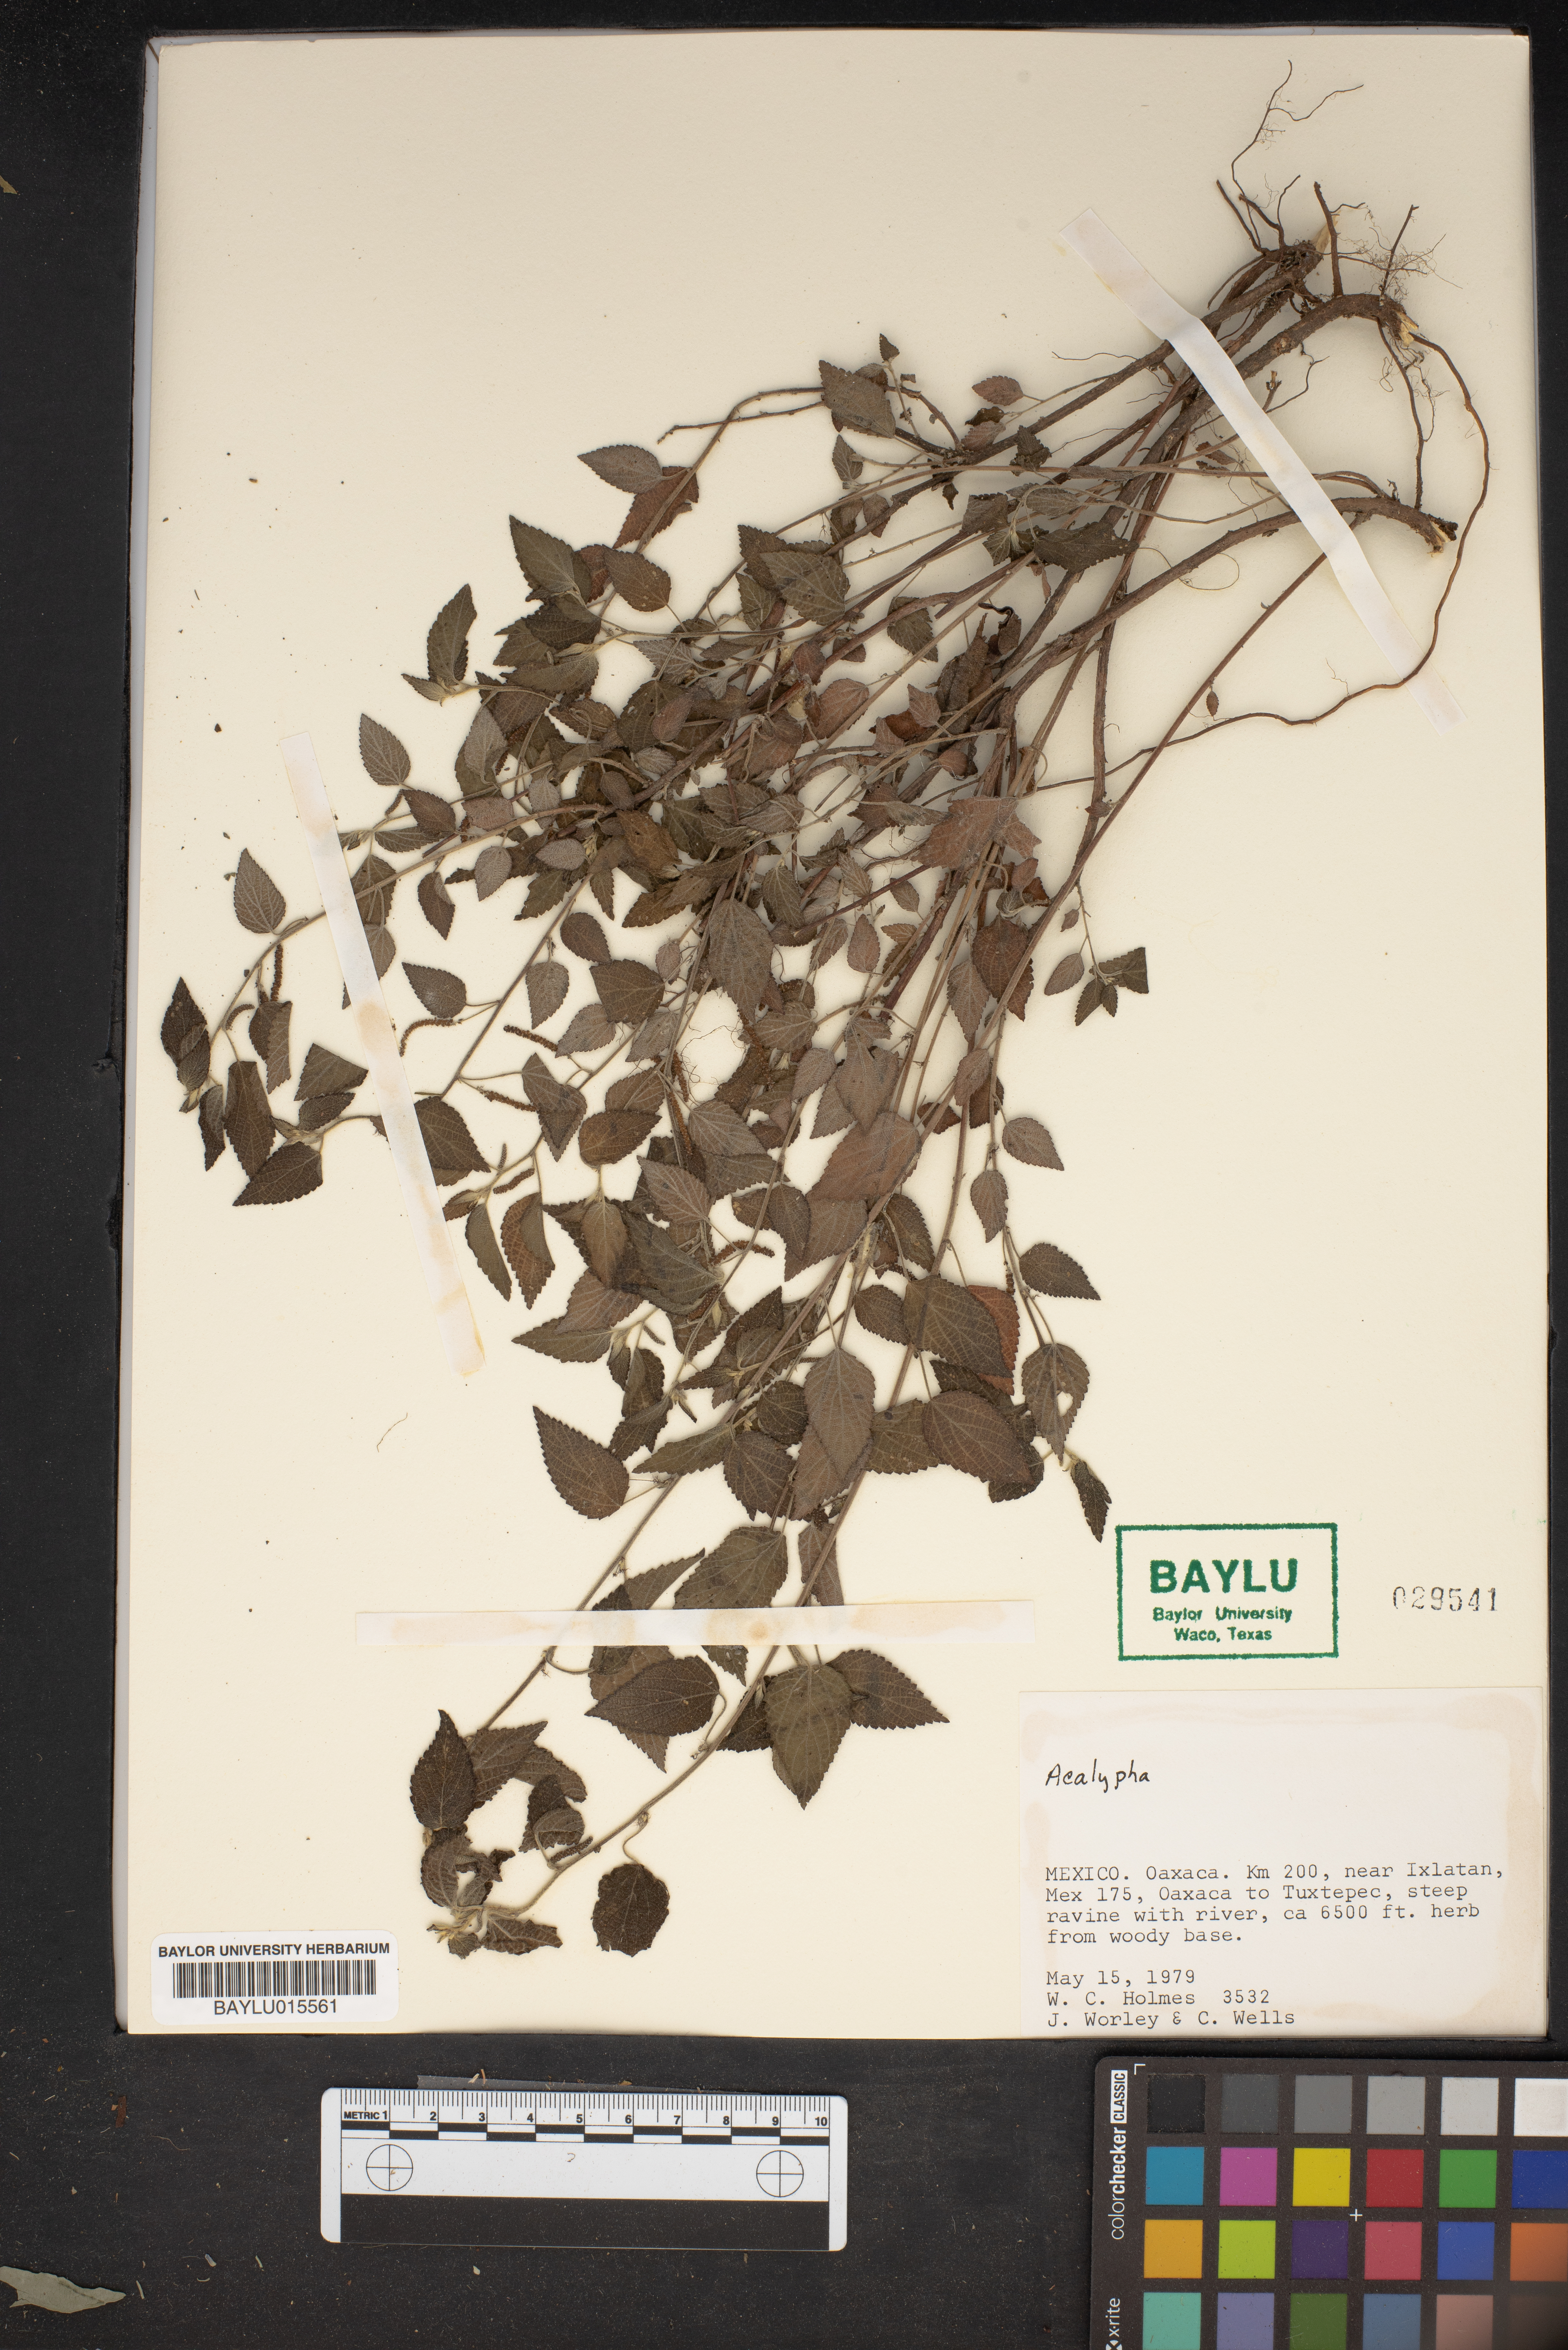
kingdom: Plantae
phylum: Tracheophyta
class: Magnoliopsida
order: Malpighiales
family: Euphorbiaceae
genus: Acalypha
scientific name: Acalypha
